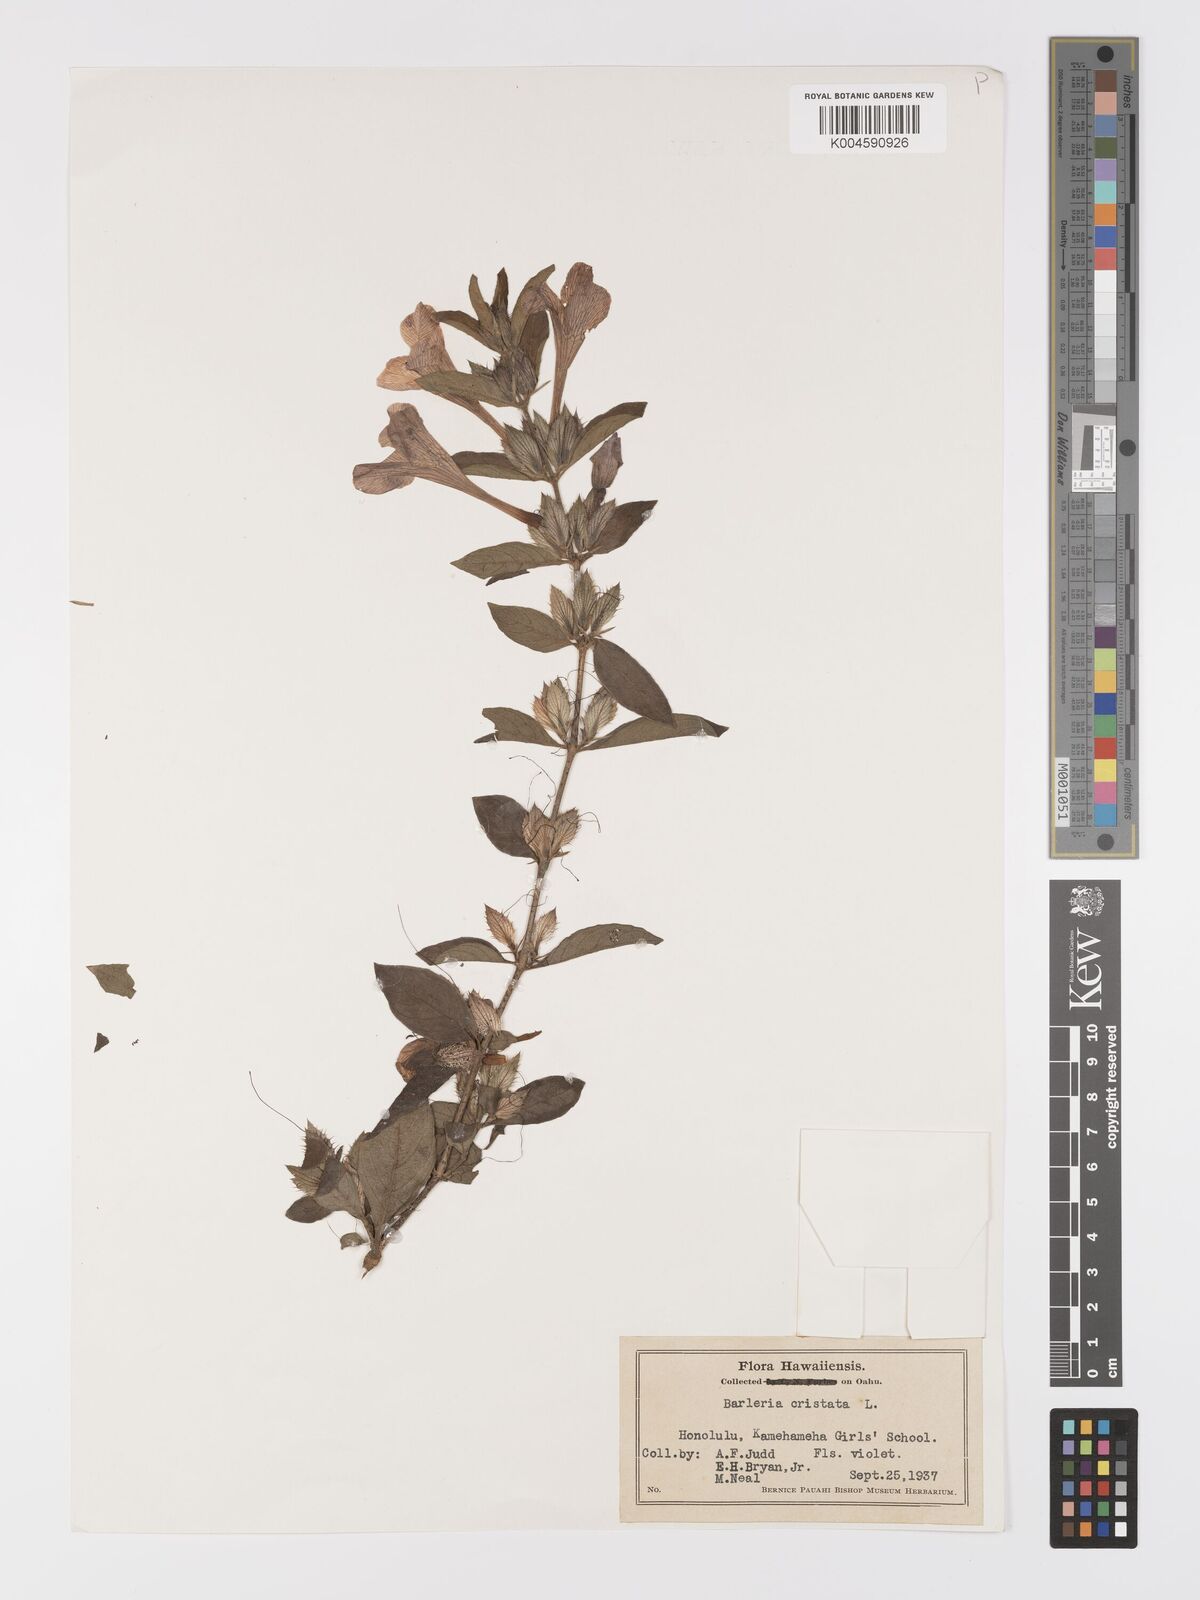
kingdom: Plantae
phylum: Tracheophyta
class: Magnoliopsida
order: Lamiales
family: Acanthaceae
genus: Barleria
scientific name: Barleria cristata
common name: Crested philippine violet
